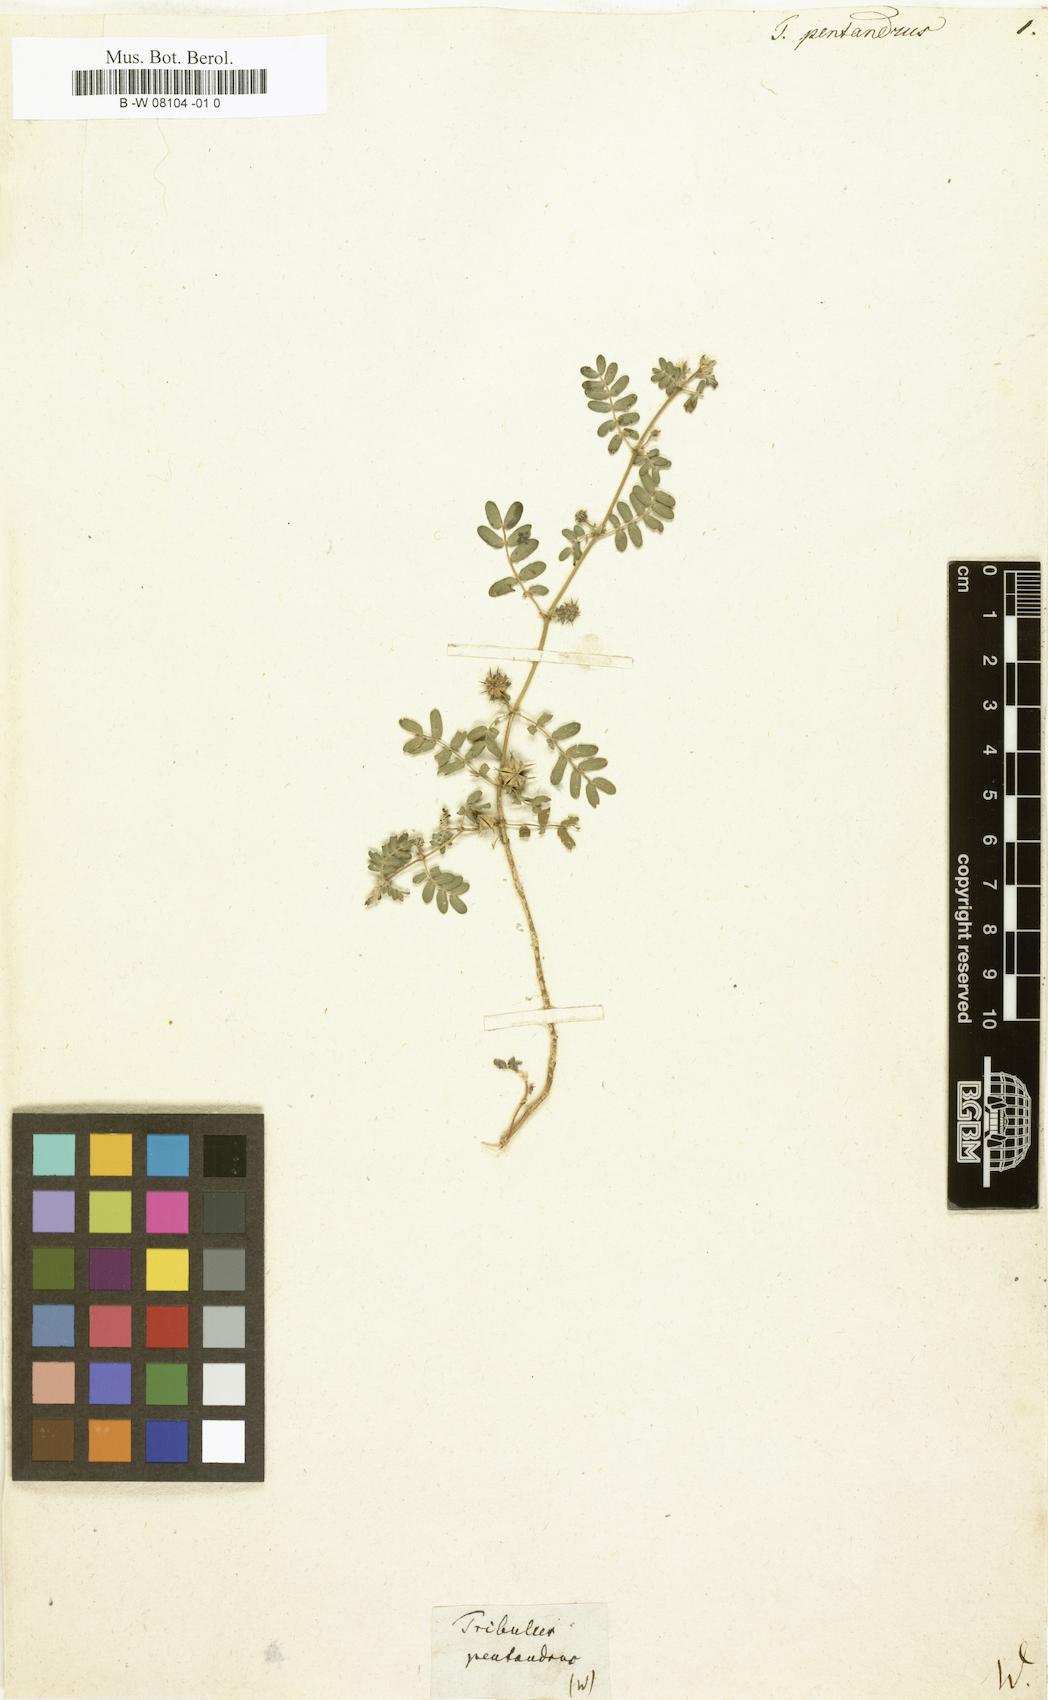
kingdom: Plantae
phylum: Tracheophyta
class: Magnoliopsida
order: Zygophyllales
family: Zygophyllaceae
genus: Tribulus
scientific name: Tribulus pentandrus
